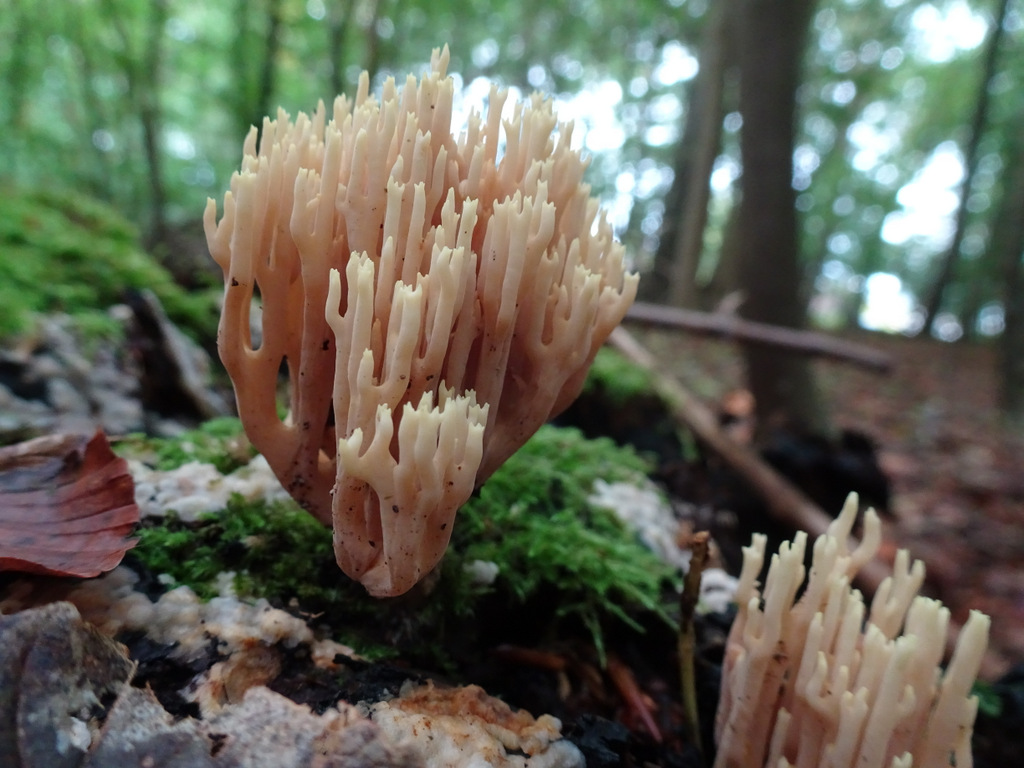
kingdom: Fungi
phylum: Basidiomycota
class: Agaricomycetes
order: Gomphales
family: Gomphaceae
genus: Ramaria
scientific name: Ramaria stricta
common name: rank koralsvamp
